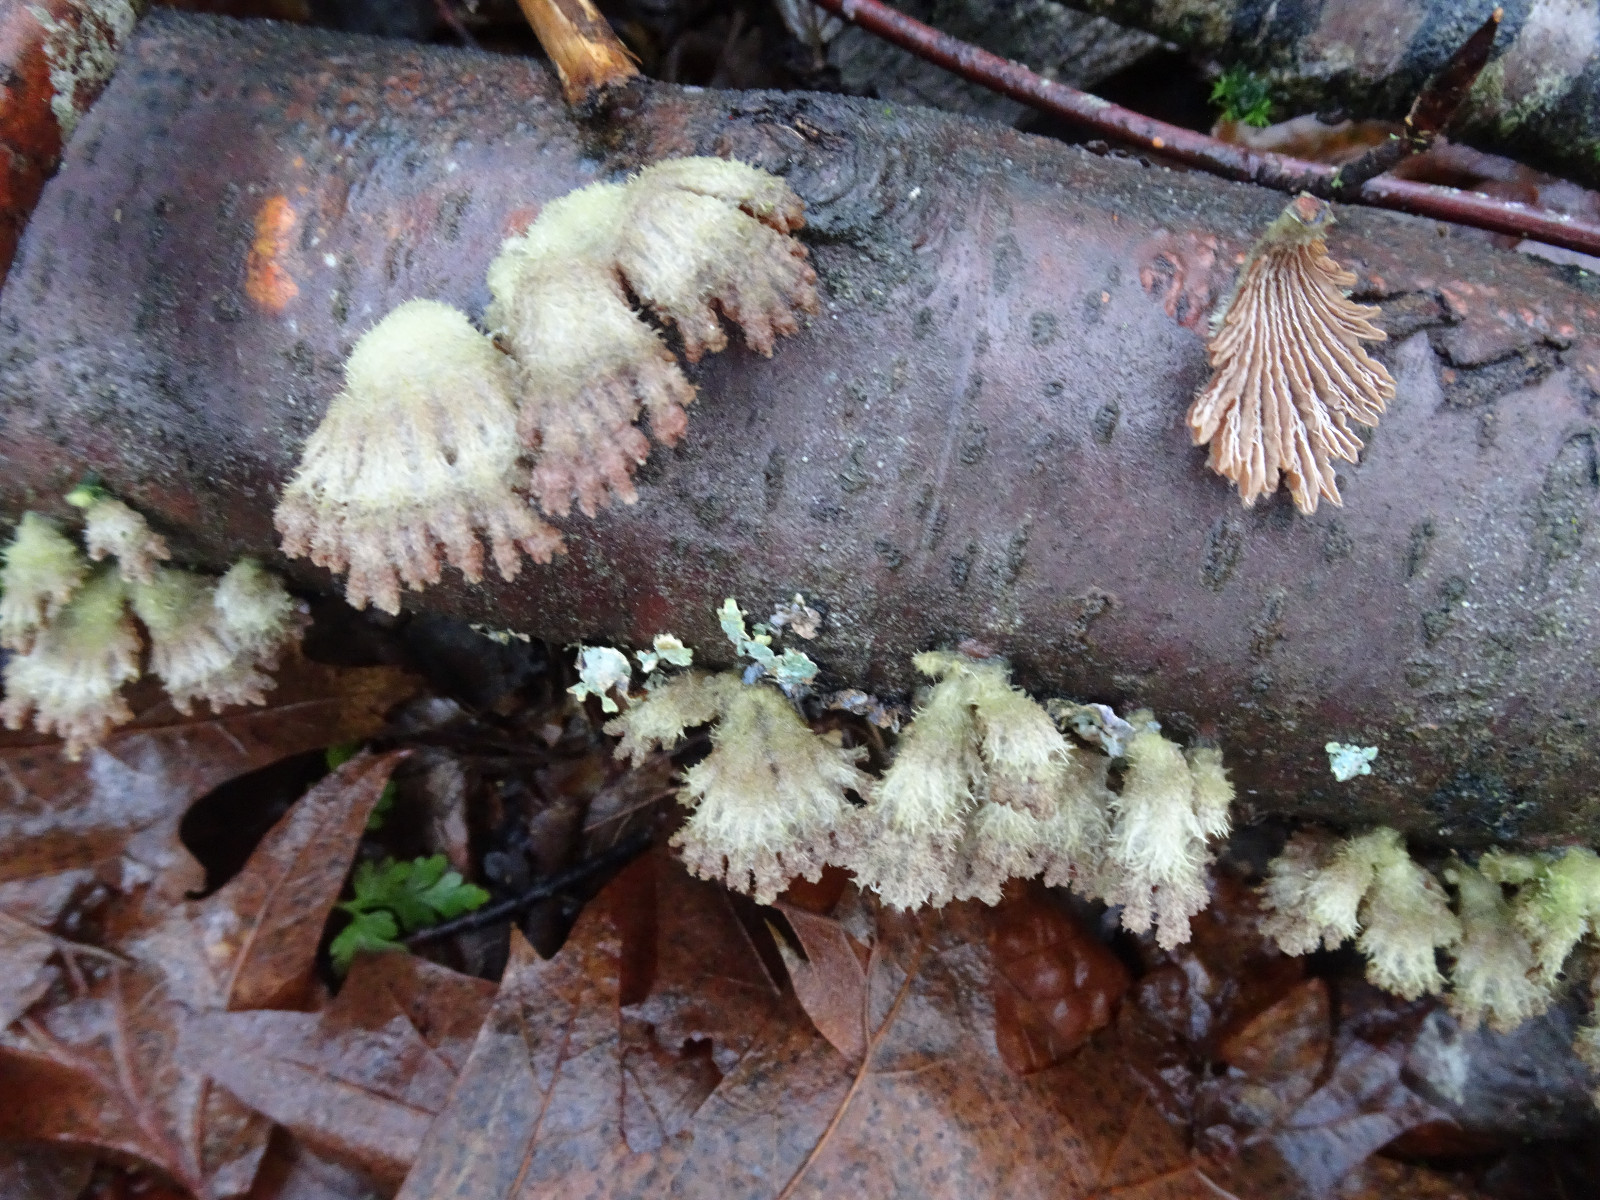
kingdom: Fungi
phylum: Basidiomycota
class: Agaricomycetes
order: Agaricales
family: Schizophyllaceae
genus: Schizophyllum
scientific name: Schizophyllum commune
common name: kløvblad
